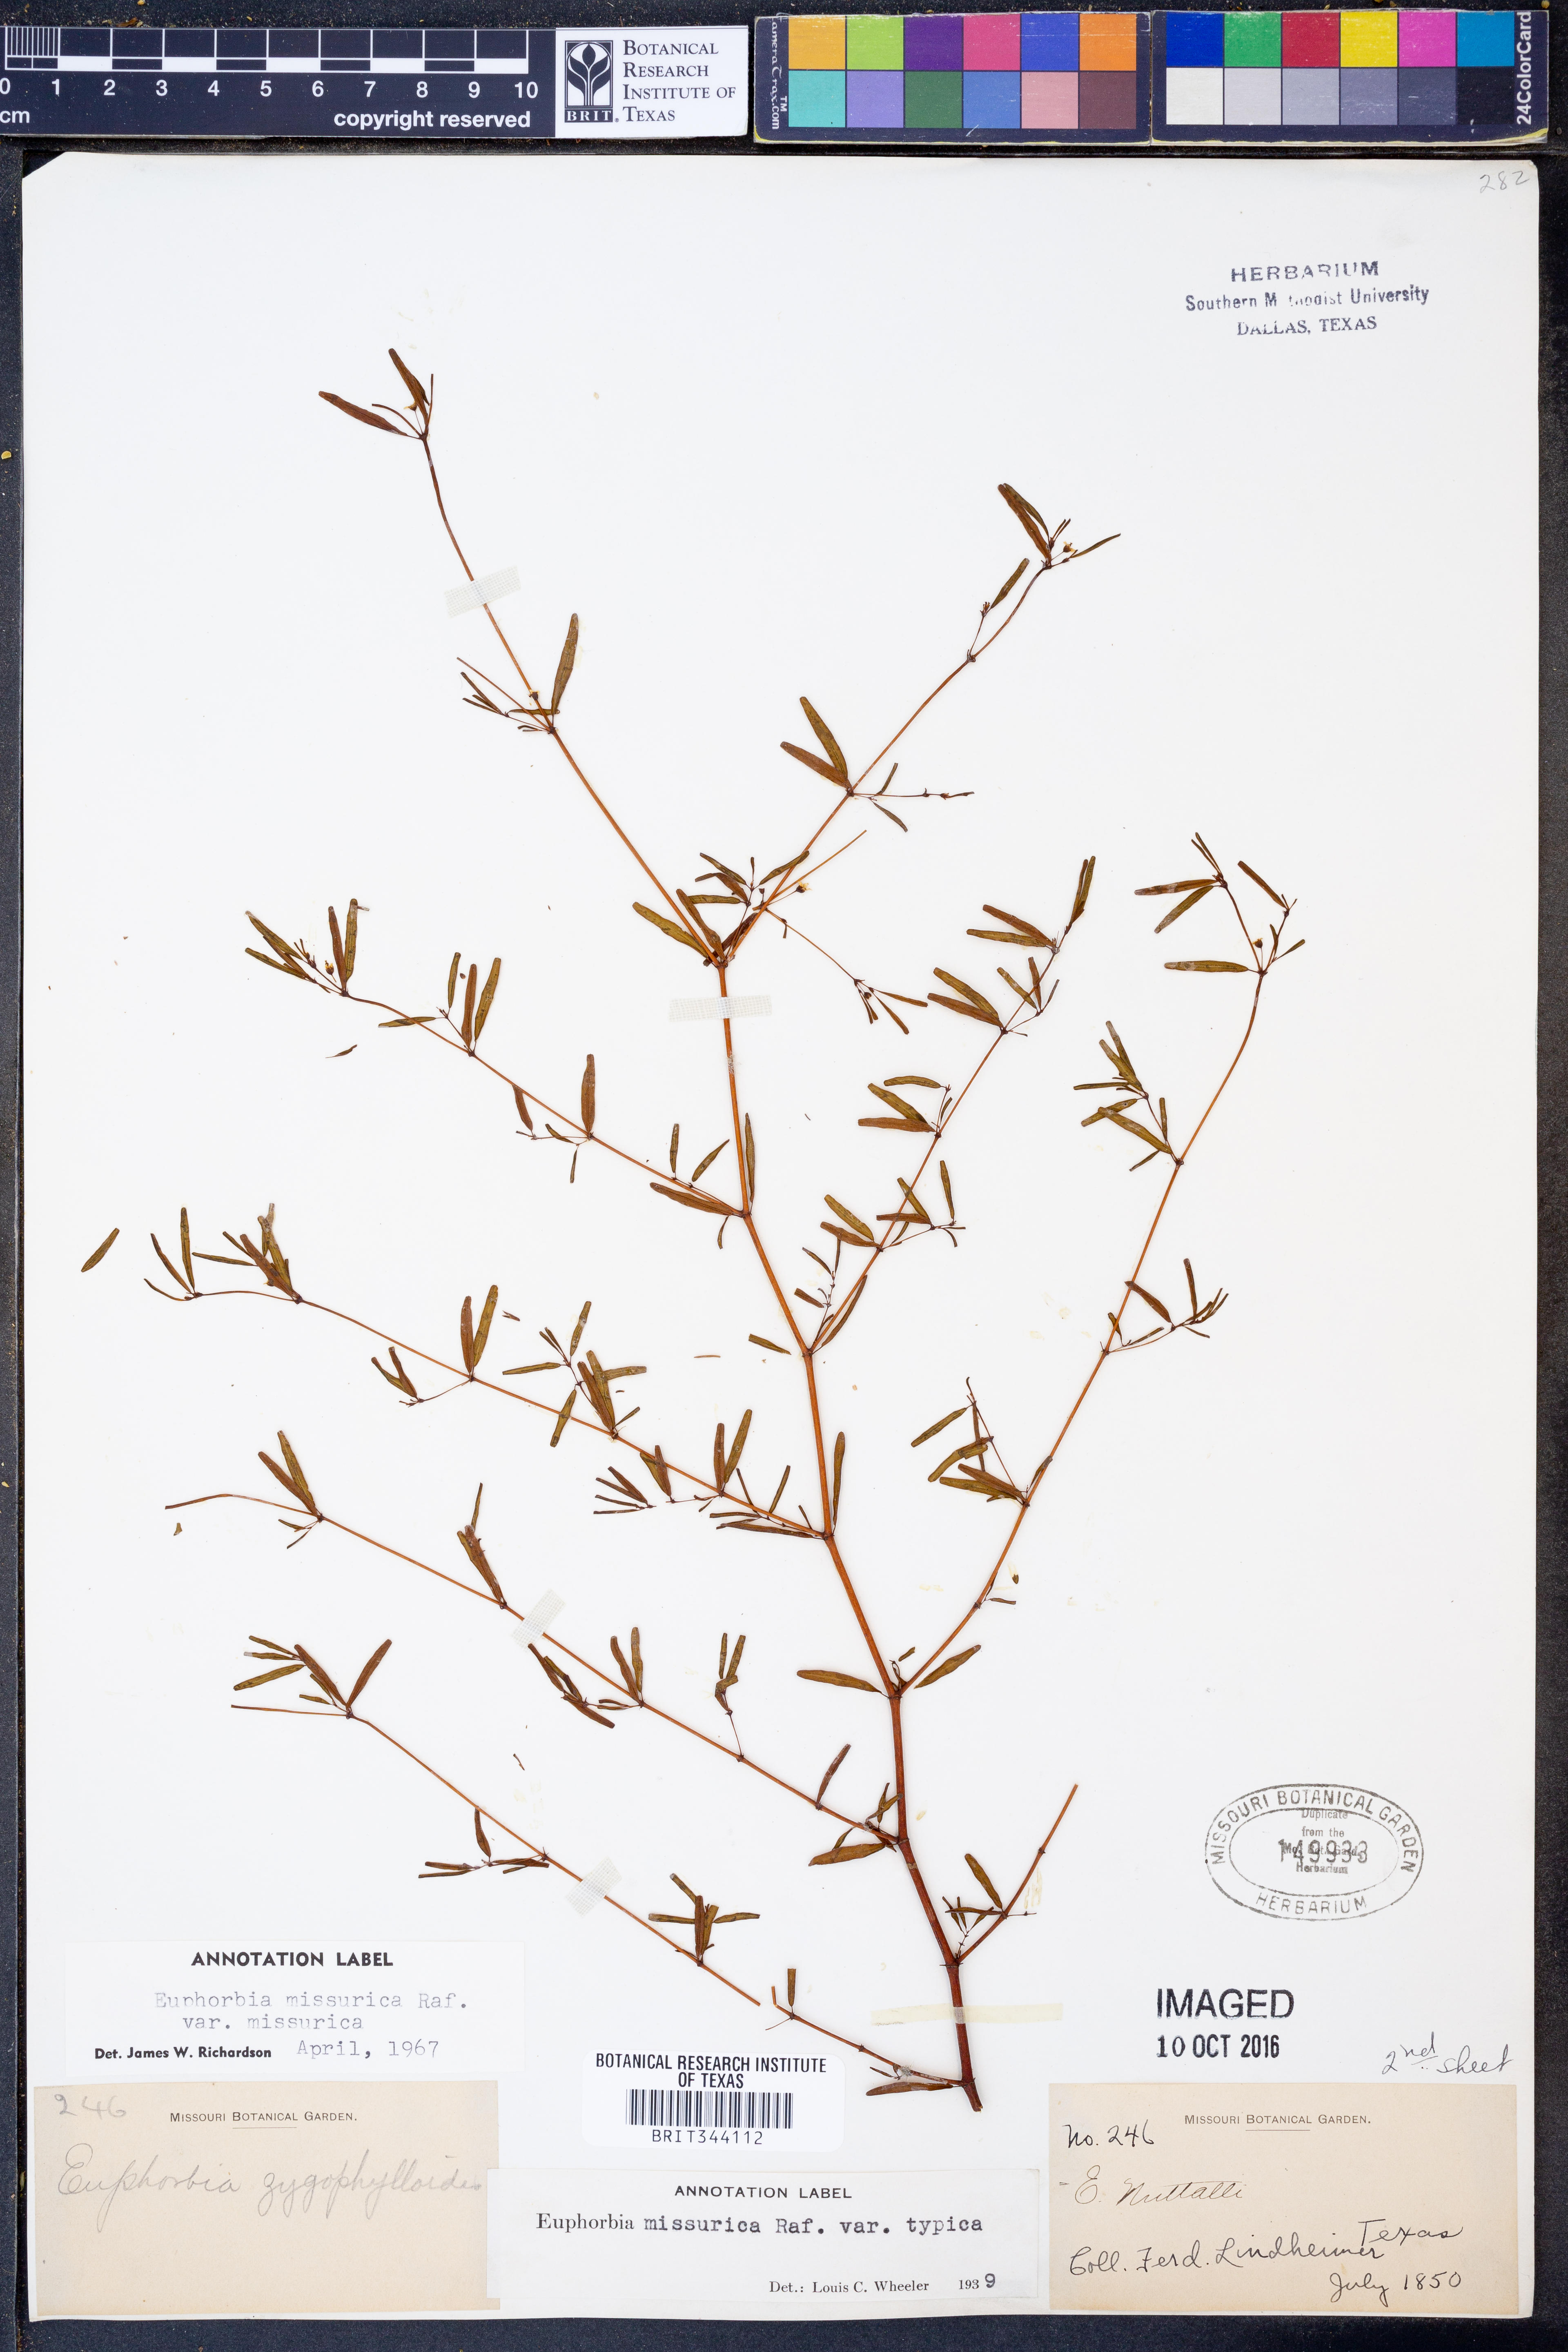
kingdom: Plantae
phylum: Tracheophyta
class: Magnoliopsida
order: Malpighiales
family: Euphorbiaceae
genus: Euphorbia
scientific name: Euphorbia missurica
